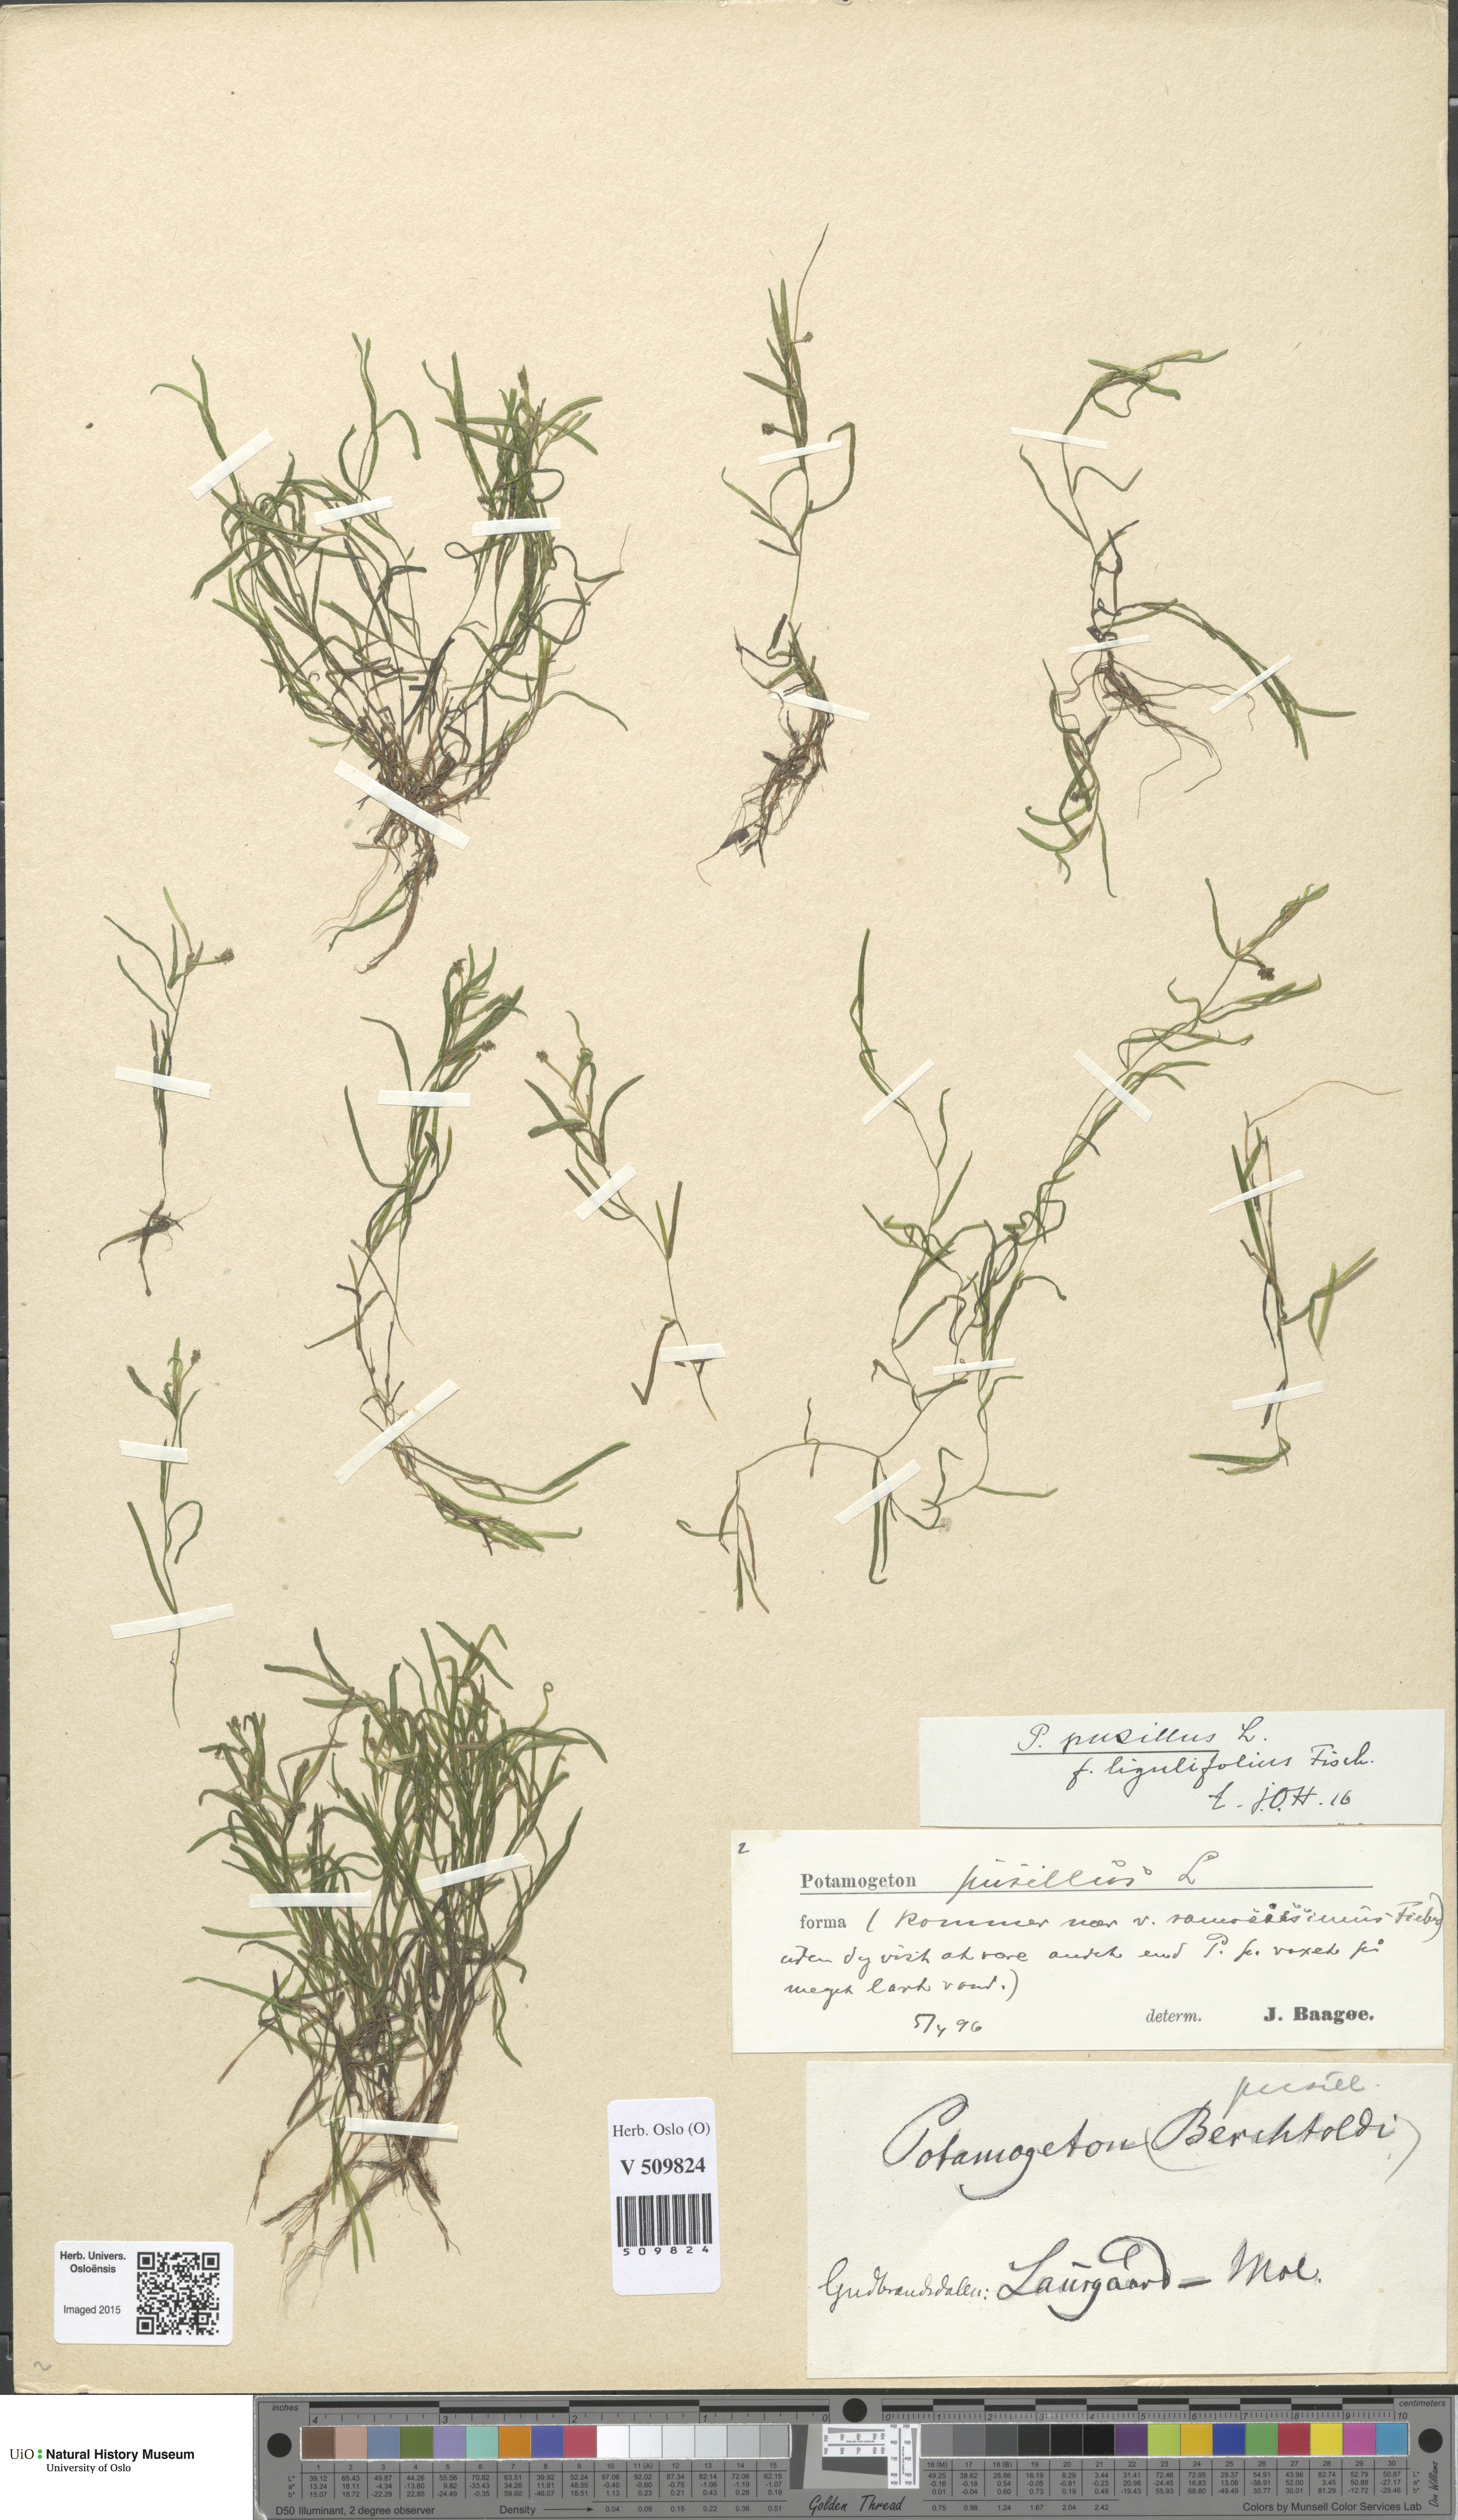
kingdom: Plantae
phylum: Tracheophyta
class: Liliopsida
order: Alismatales
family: Potamogetonaceae
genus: Potamogeton
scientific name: Potamogeton berchtoldii
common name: Small pondweed
